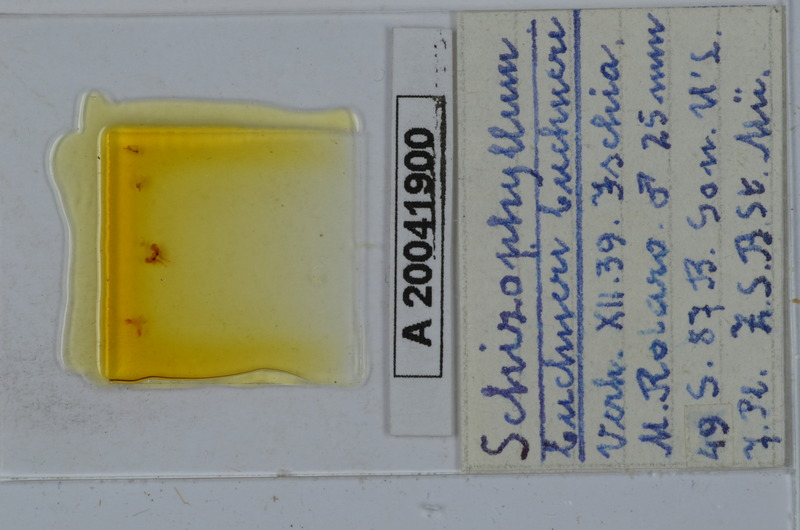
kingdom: Animalia
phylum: Arthropoda
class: Diplopoda
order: Julida
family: Julidae
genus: Ommatoiulus
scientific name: Ommatoiulus buchneri
